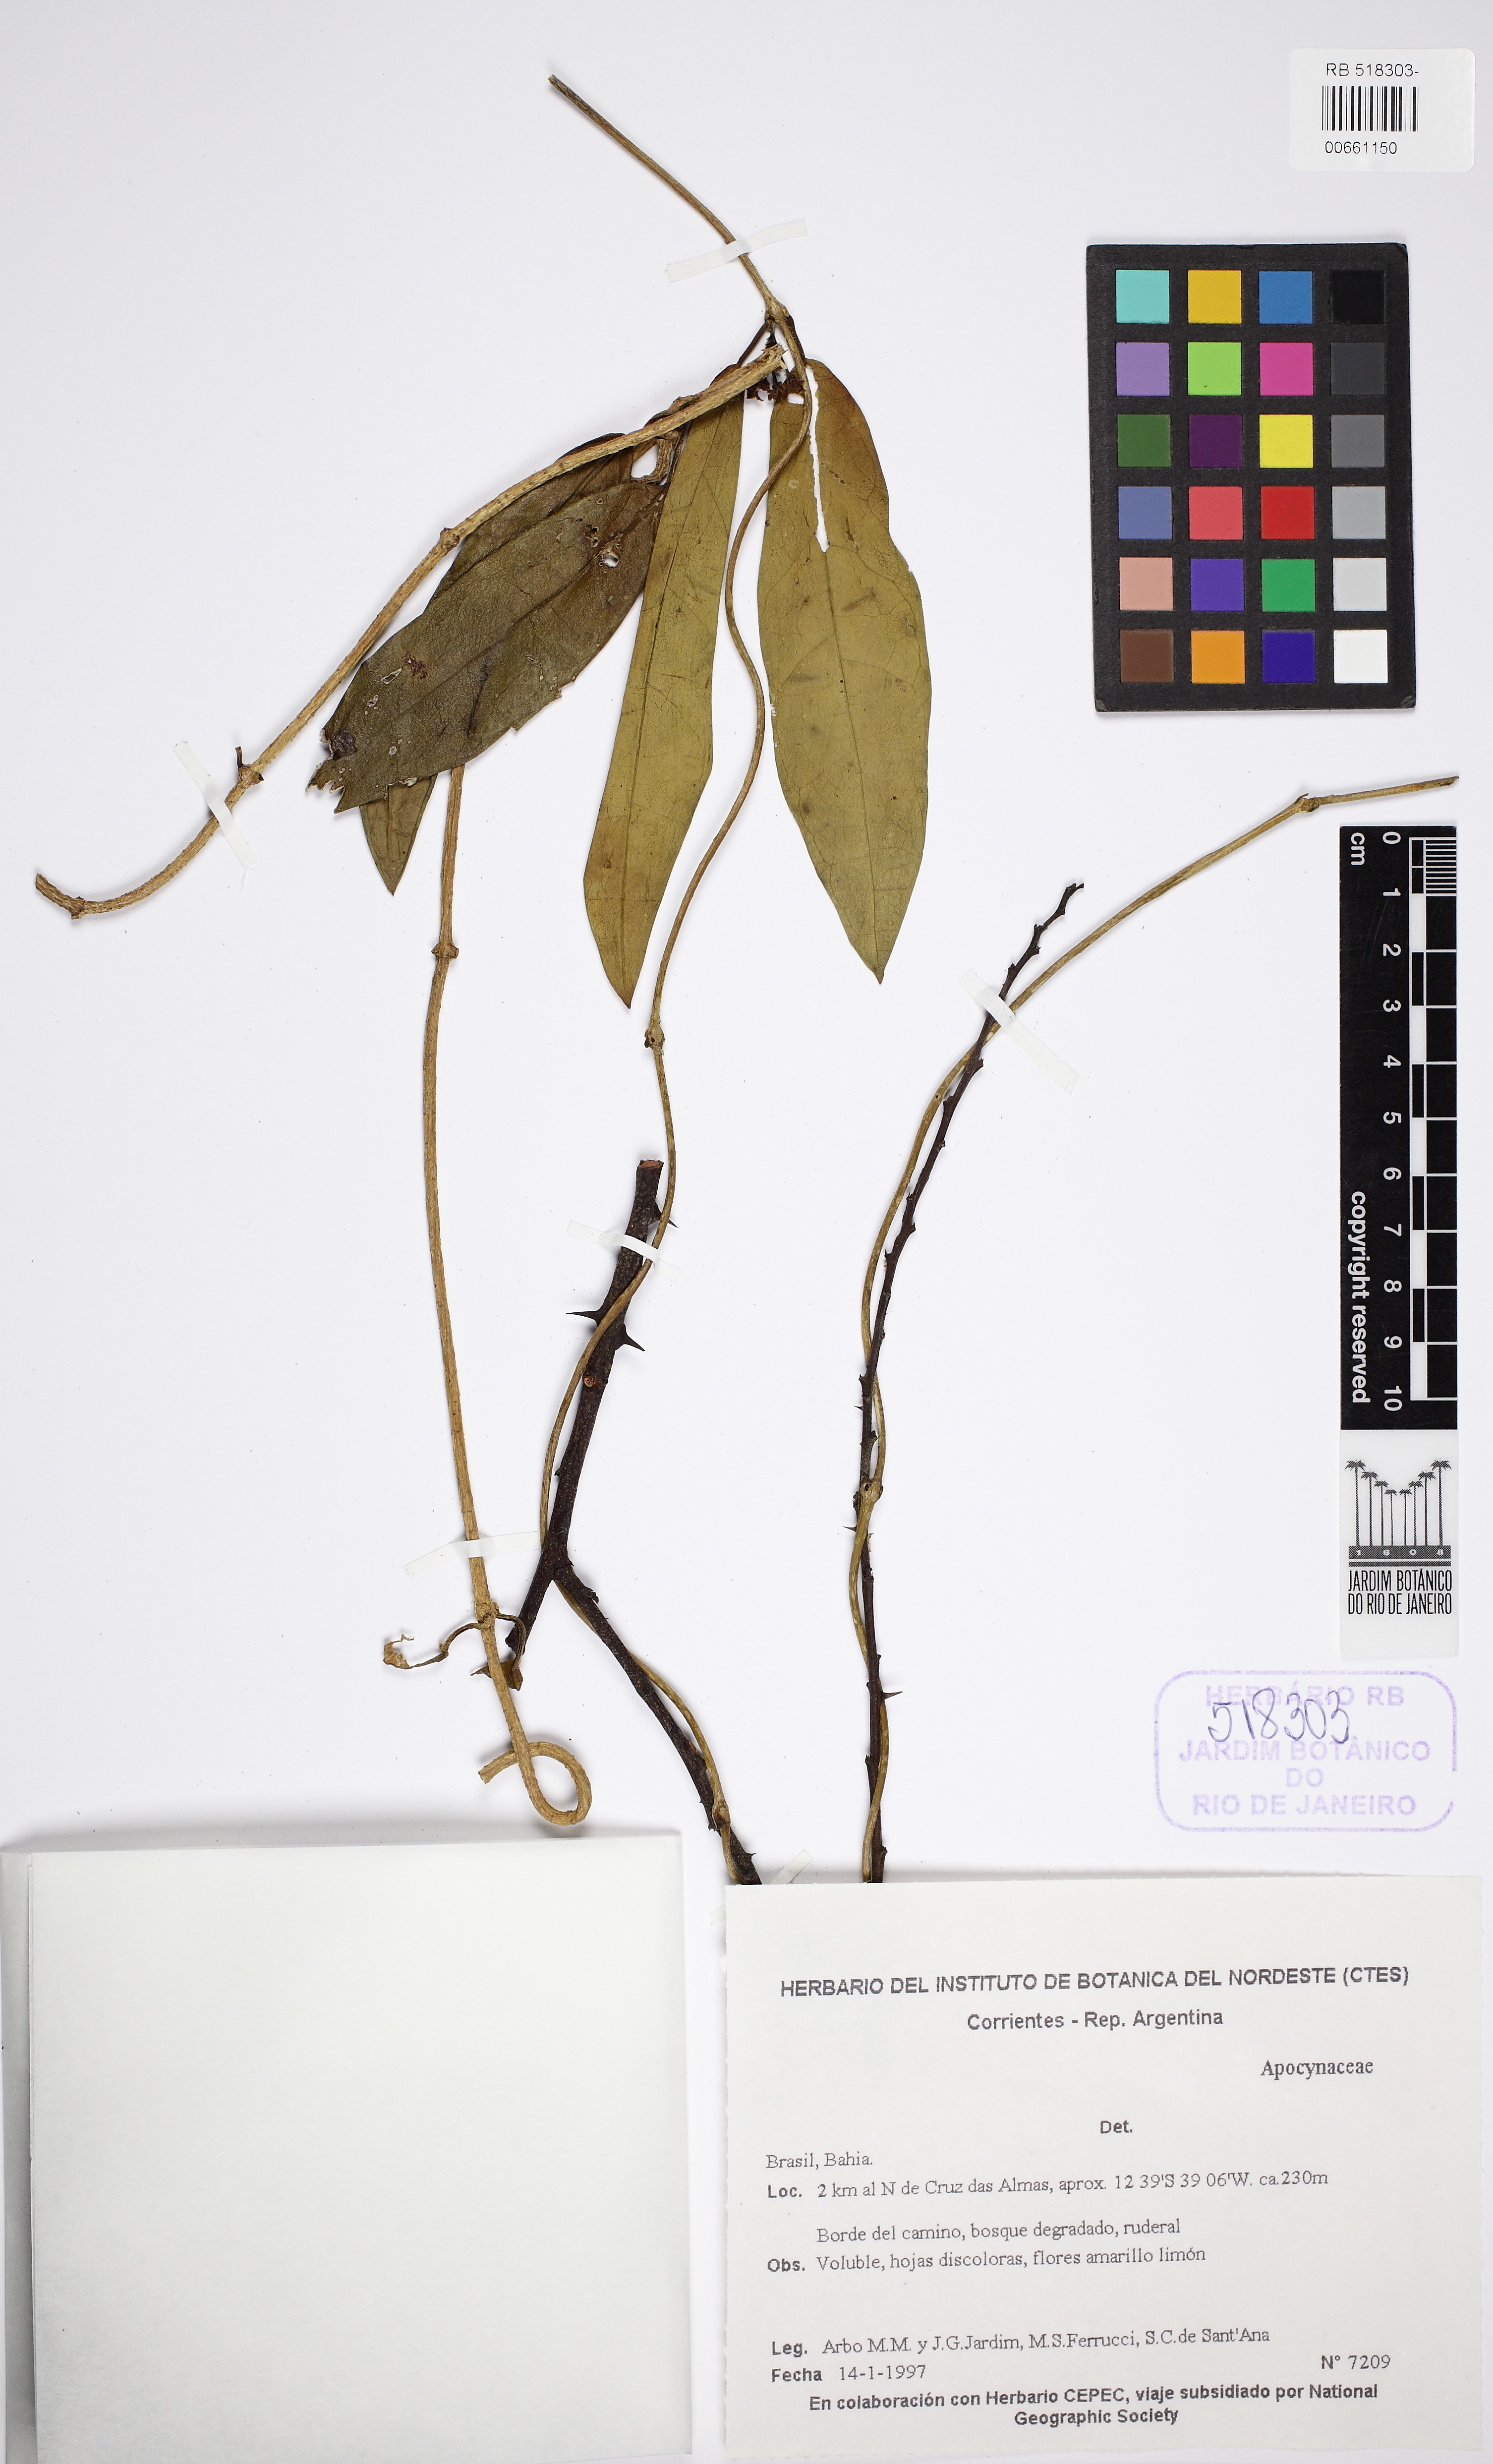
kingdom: Plantae
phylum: Tracheophyta
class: Magnoliopsida
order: Gentianales
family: Apocynaceae
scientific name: Apocynaceae
